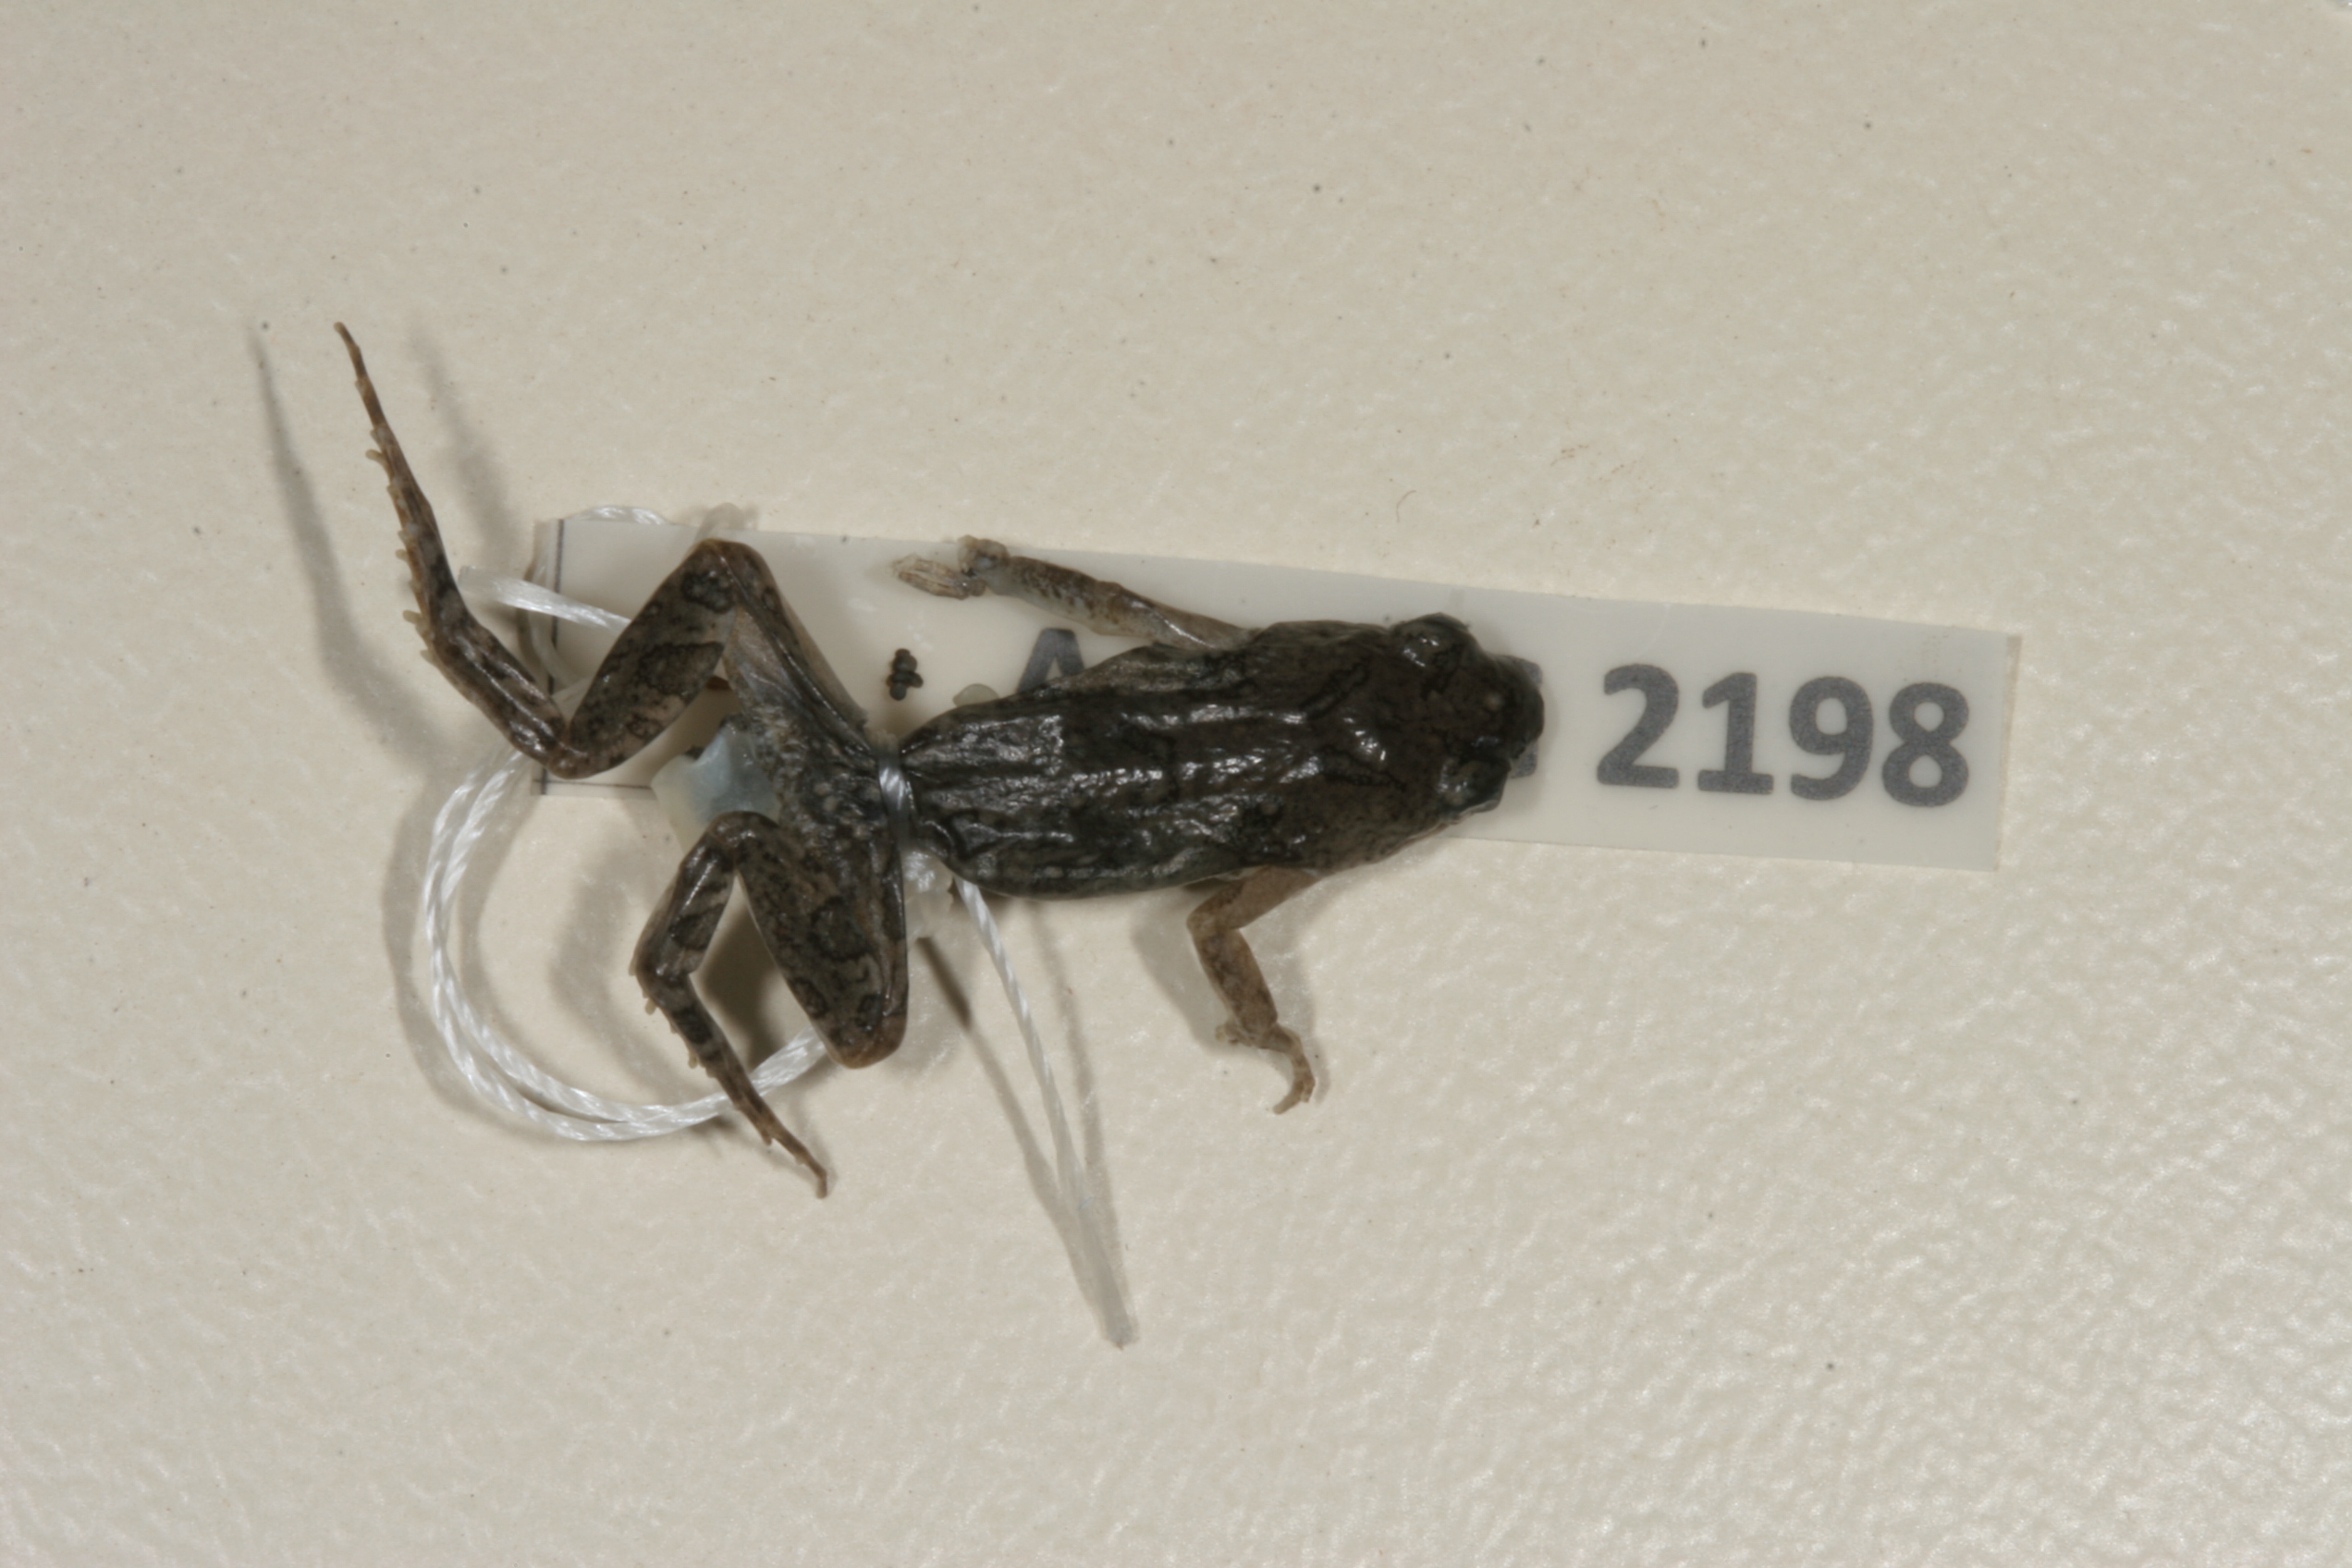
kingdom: Animalia
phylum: Chordata
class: Amphibia
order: Anura
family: Pyxicephalidae
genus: Cacosternum
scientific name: Cacosternum boettgeri
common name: Boettger's frog
